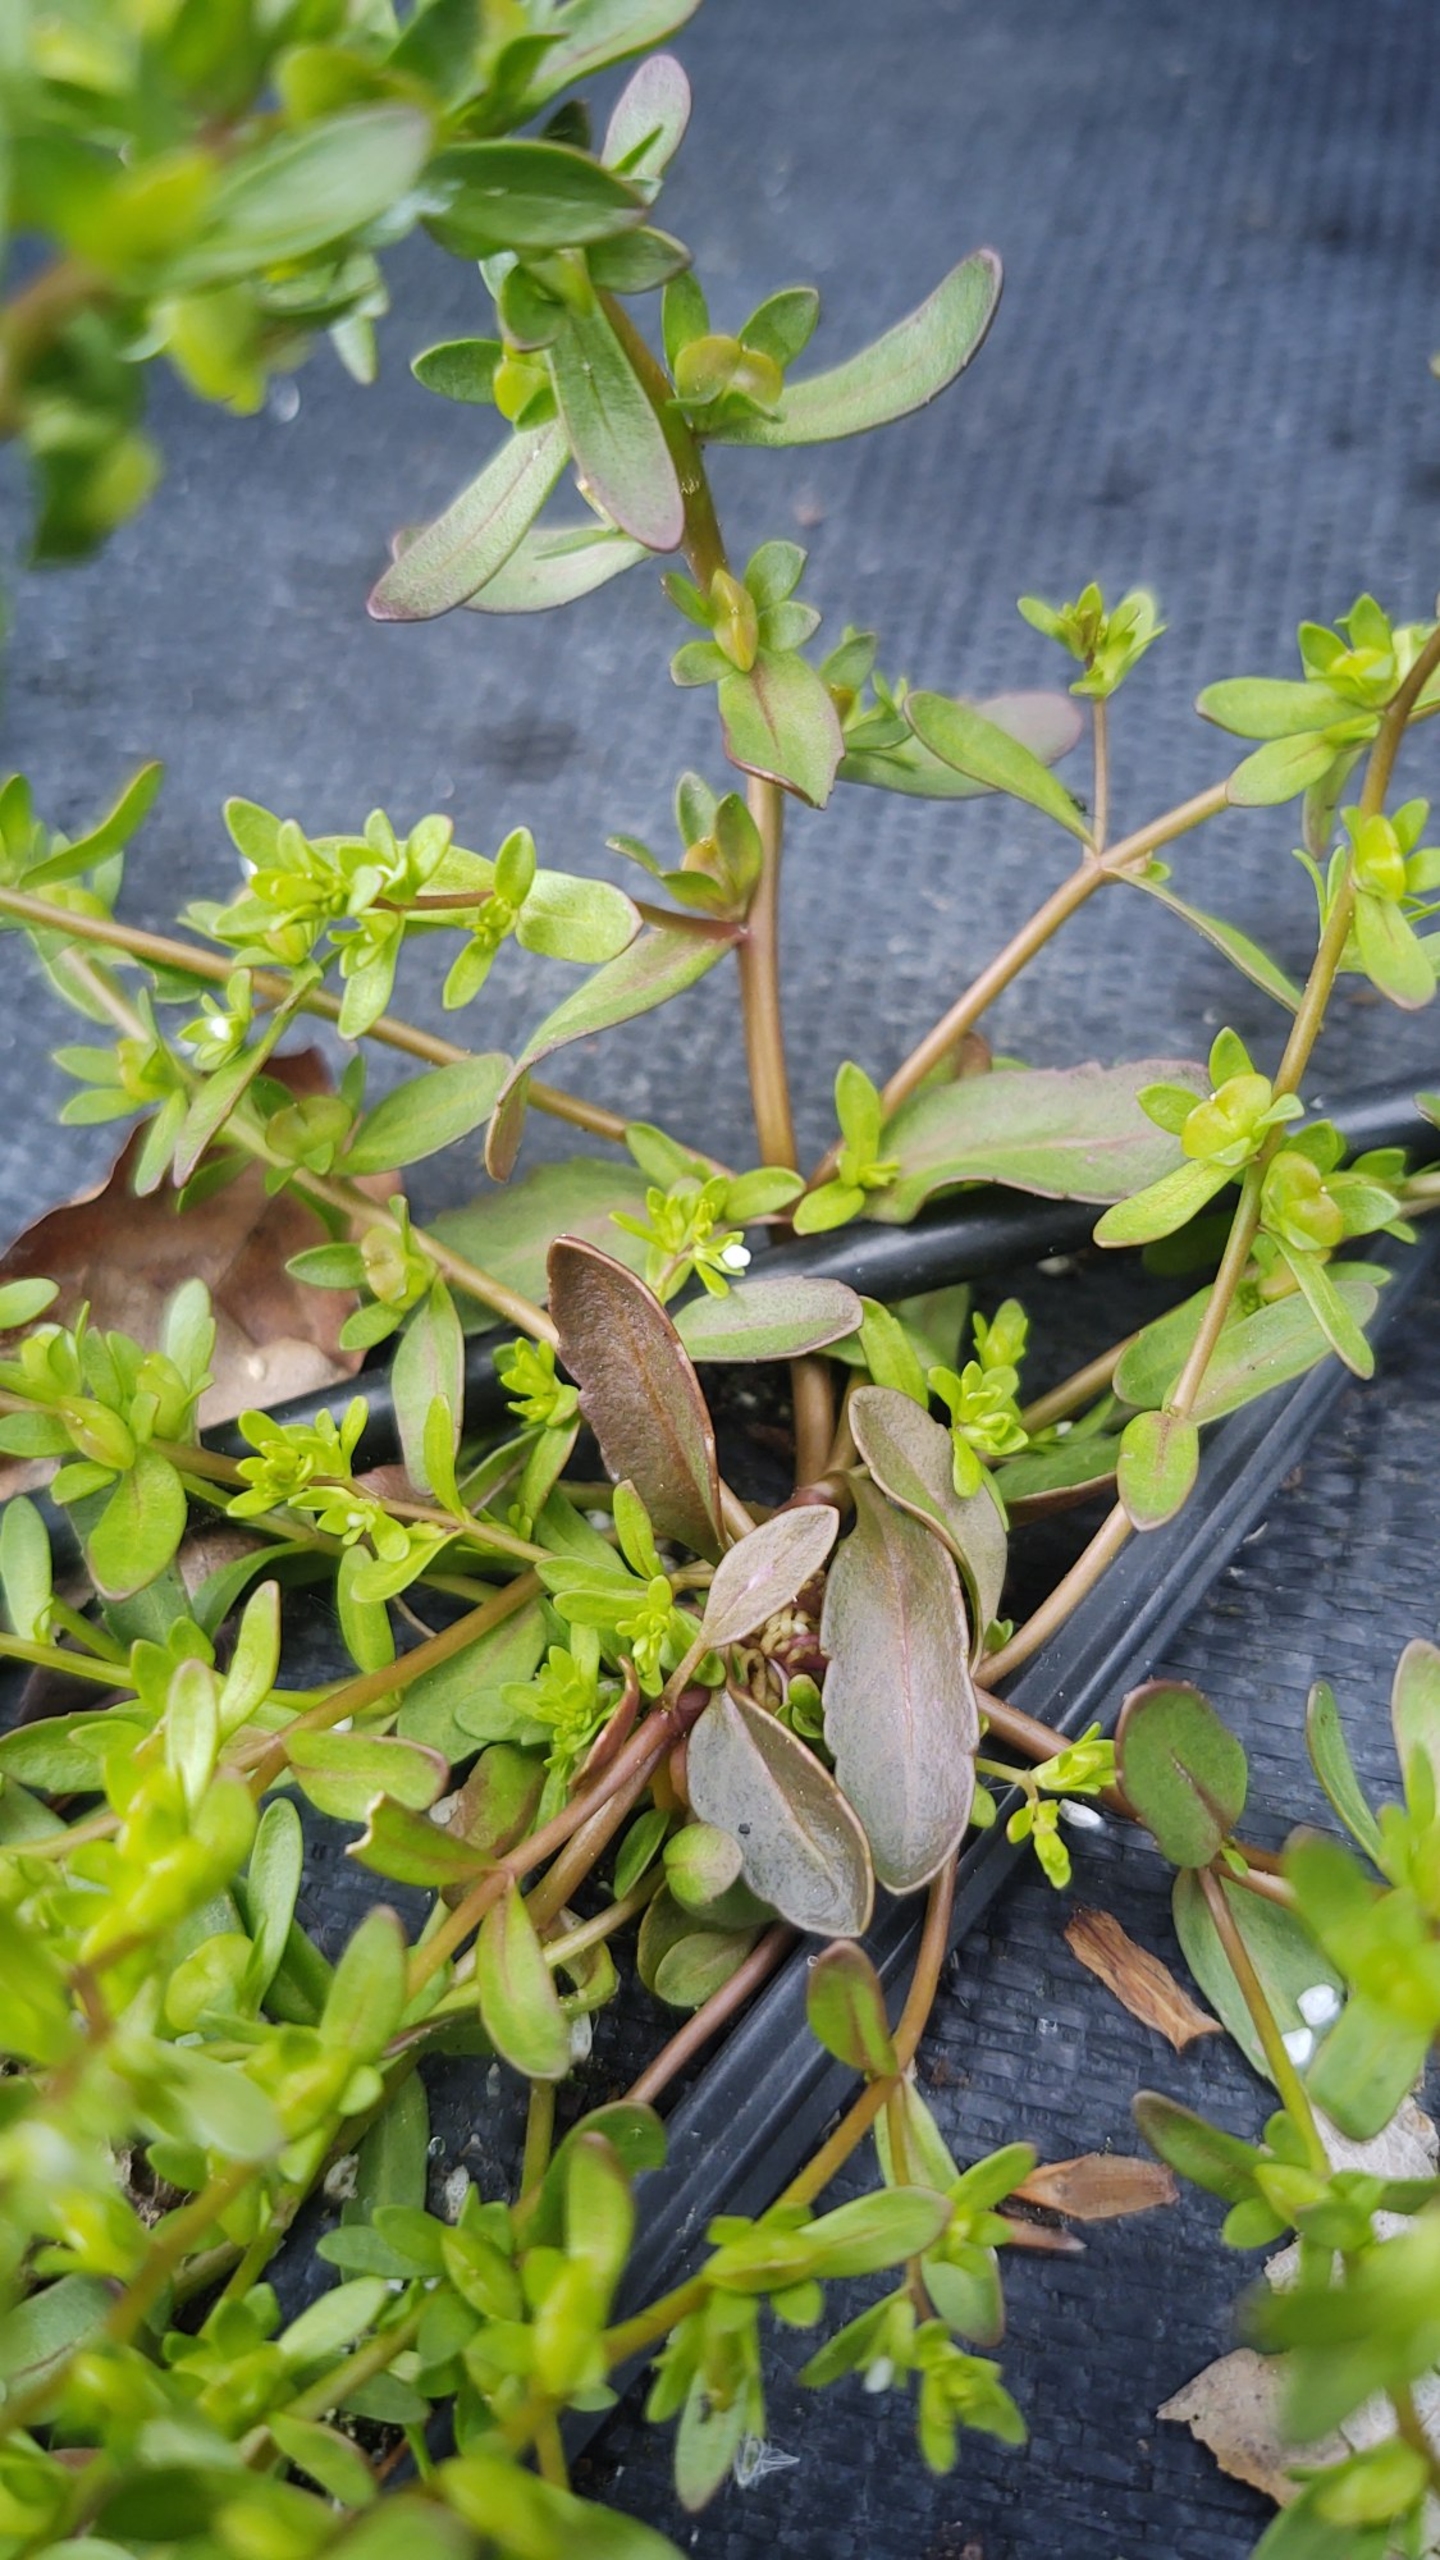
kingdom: Plantae
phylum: Tracheophyta
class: Magnoliopsida
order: Lamiales
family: Plantaginaceae
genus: Veronica
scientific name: Veronica peregrina
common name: Amerikansk ærenpris
